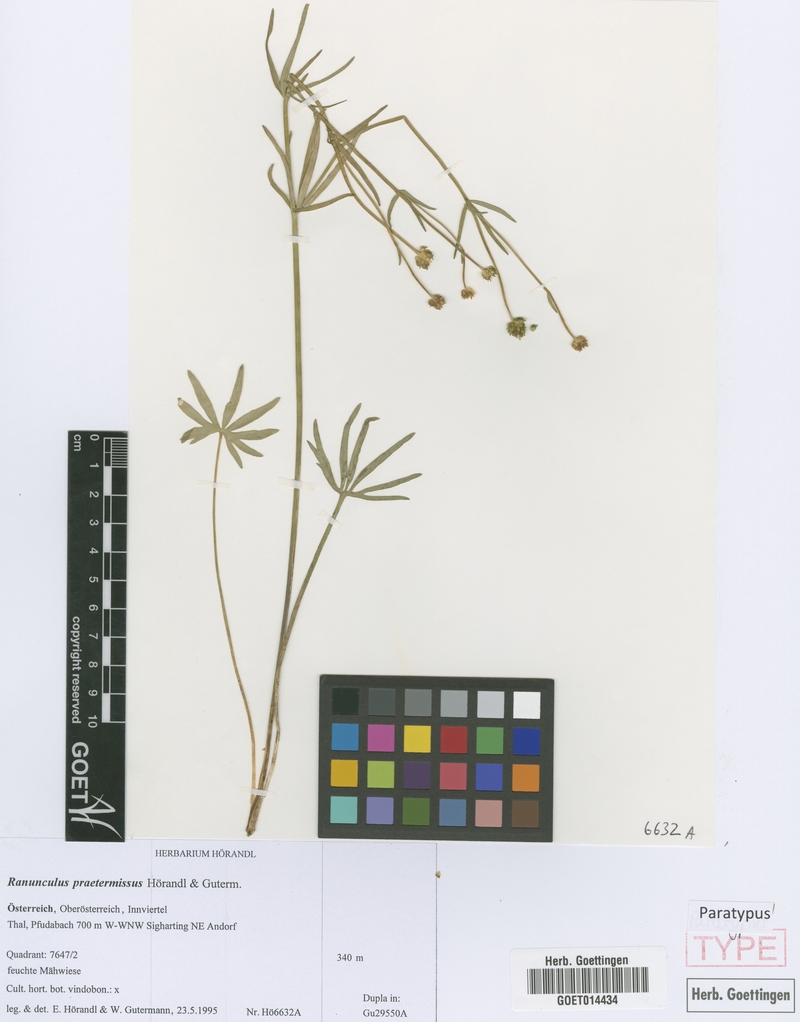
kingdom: Plantae
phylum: Tracheophyta
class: Magnoliopsida
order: Ranunculales
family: Ranunculaceae
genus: Ranunculus
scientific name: Ranunculus praetermissus
